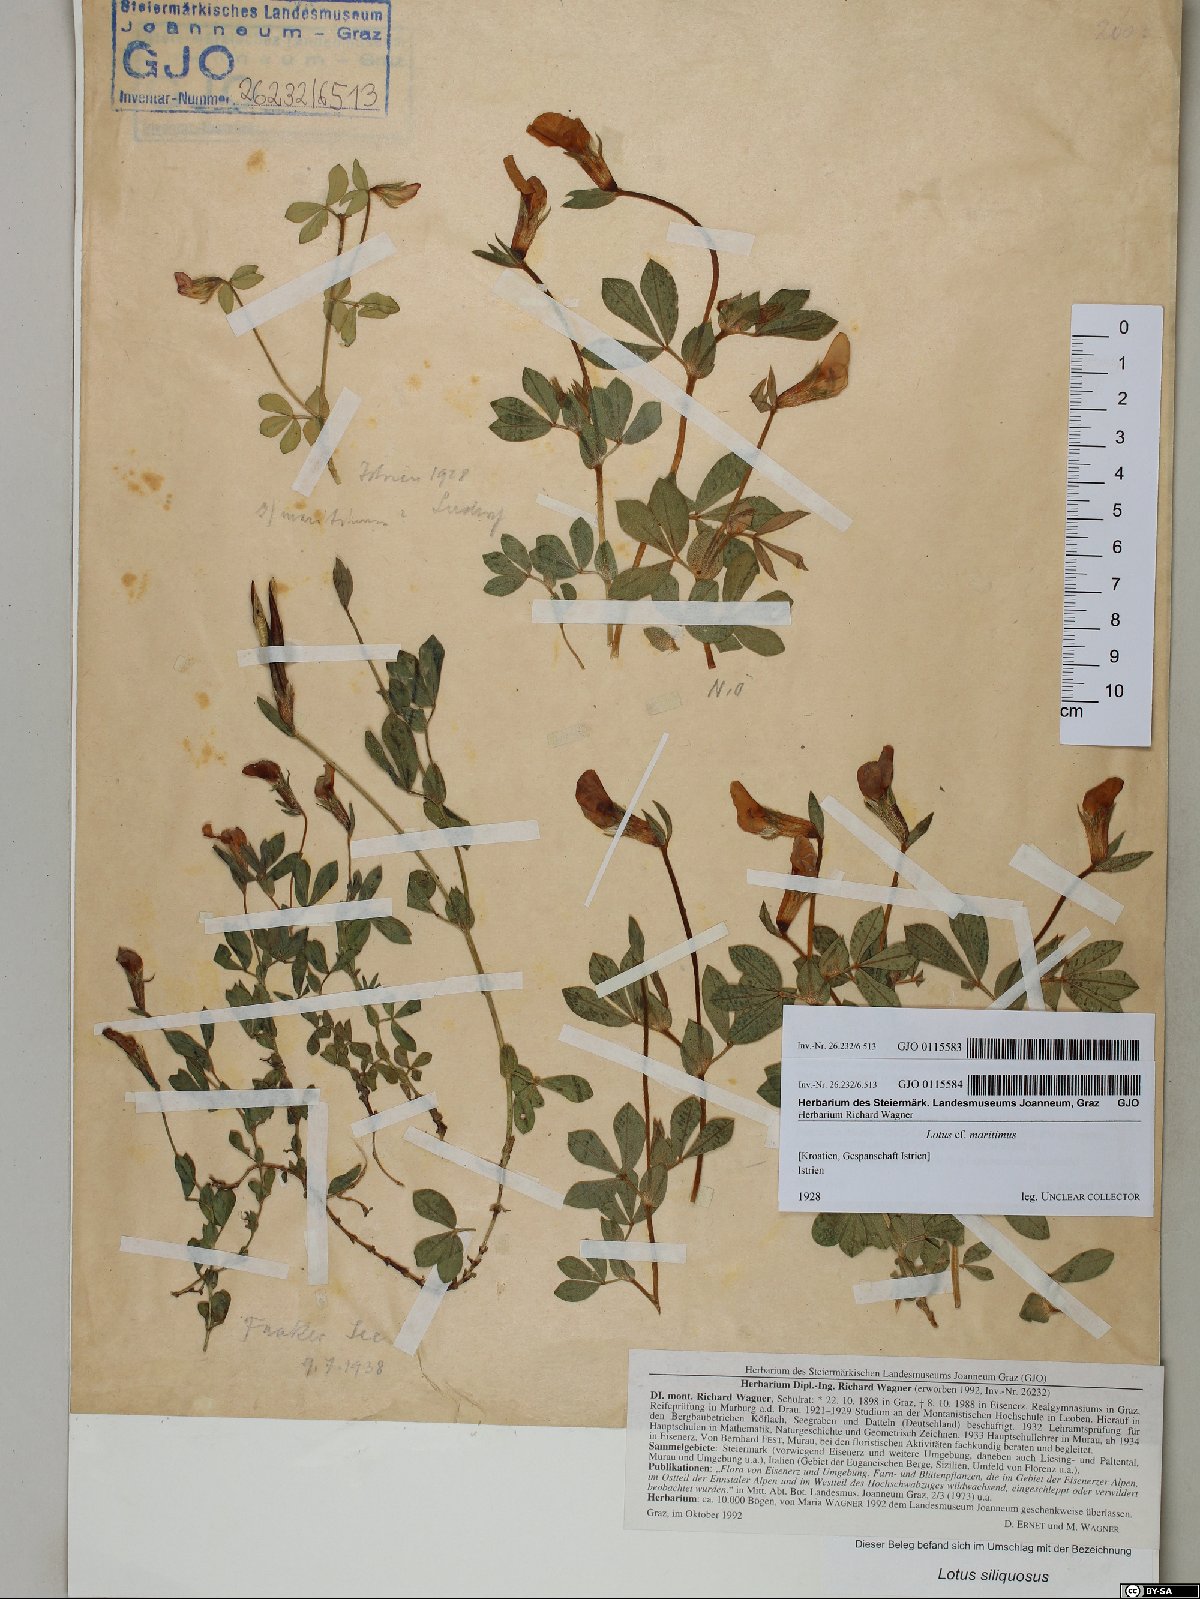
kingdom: Plantae
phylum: Tracheophyta
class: Magnoliopsida
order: Fabales
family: Fabaceae
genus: Lathyrus
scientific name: Lathyrus inconspicuus
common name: Inconspicuous pea
